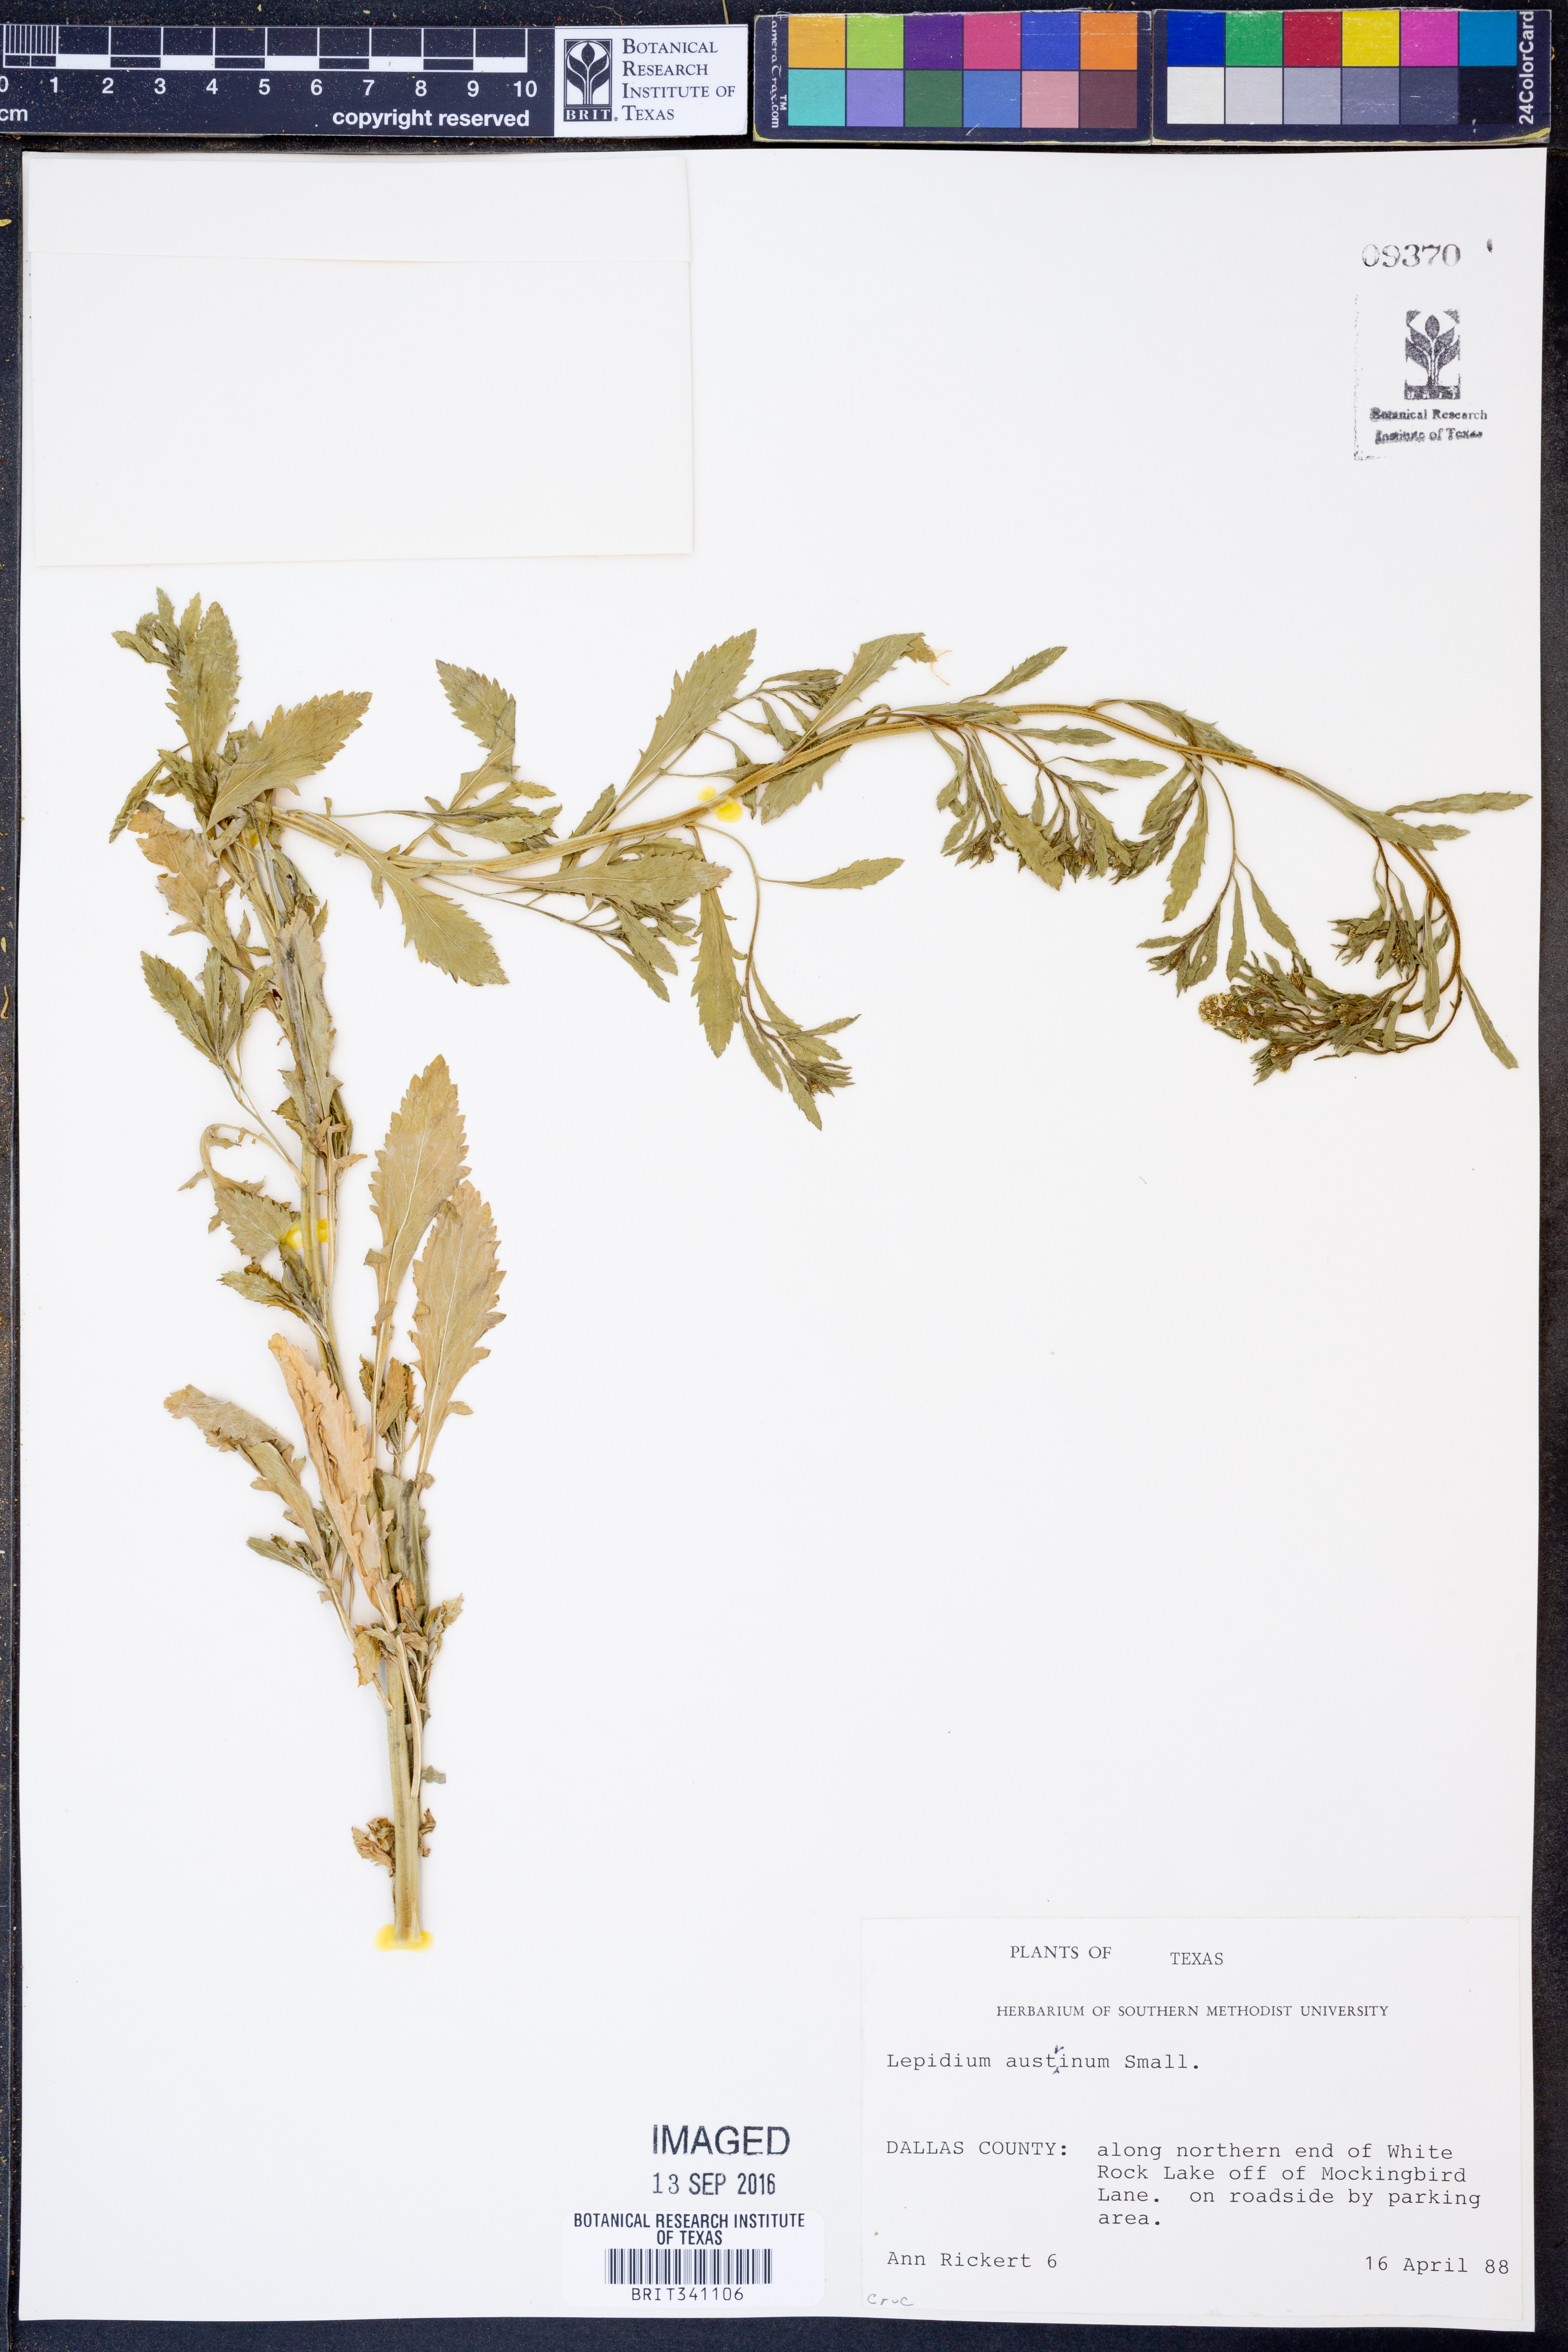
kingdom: Plantae
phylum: Tracheophyta
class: Magnoliopsida
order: Brassicales
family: Brassicaceae
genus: Lepidium
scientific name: Lepidium austrinum
